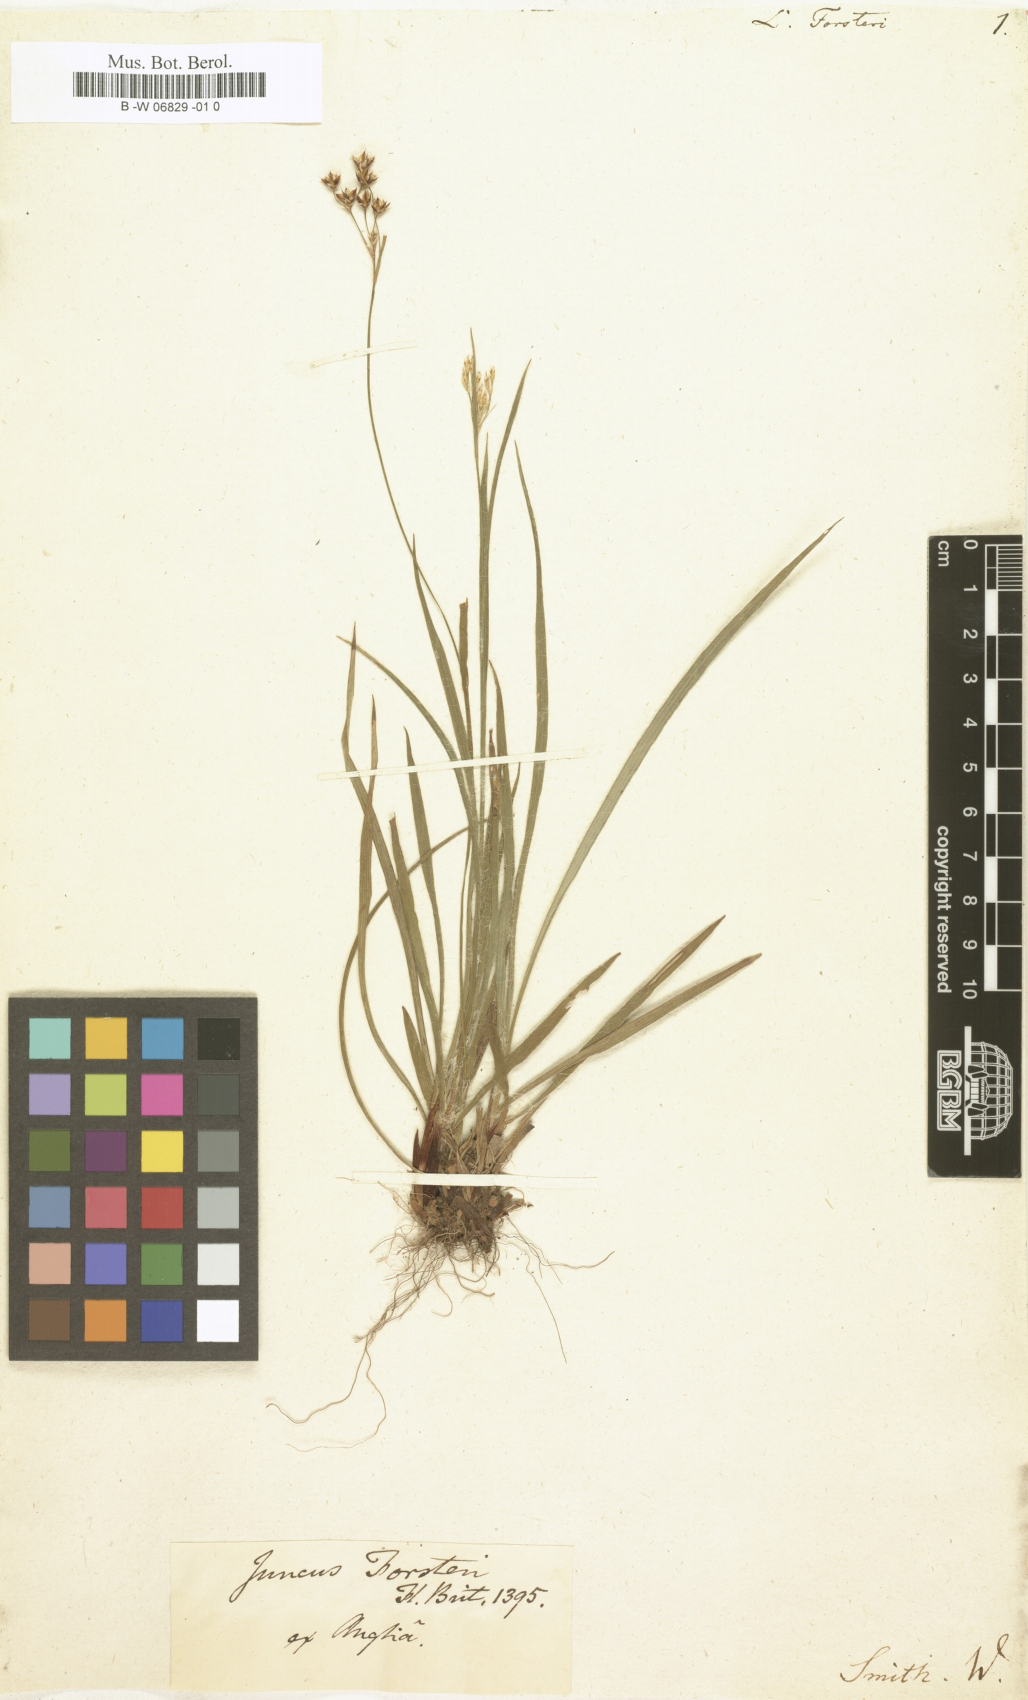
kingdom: Plantae
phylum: Tracheophyta
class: Liliopsida
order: Poales
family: Juncaceae
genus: Luzula
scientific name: Luzula forsteri
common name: Southern wood-rush
